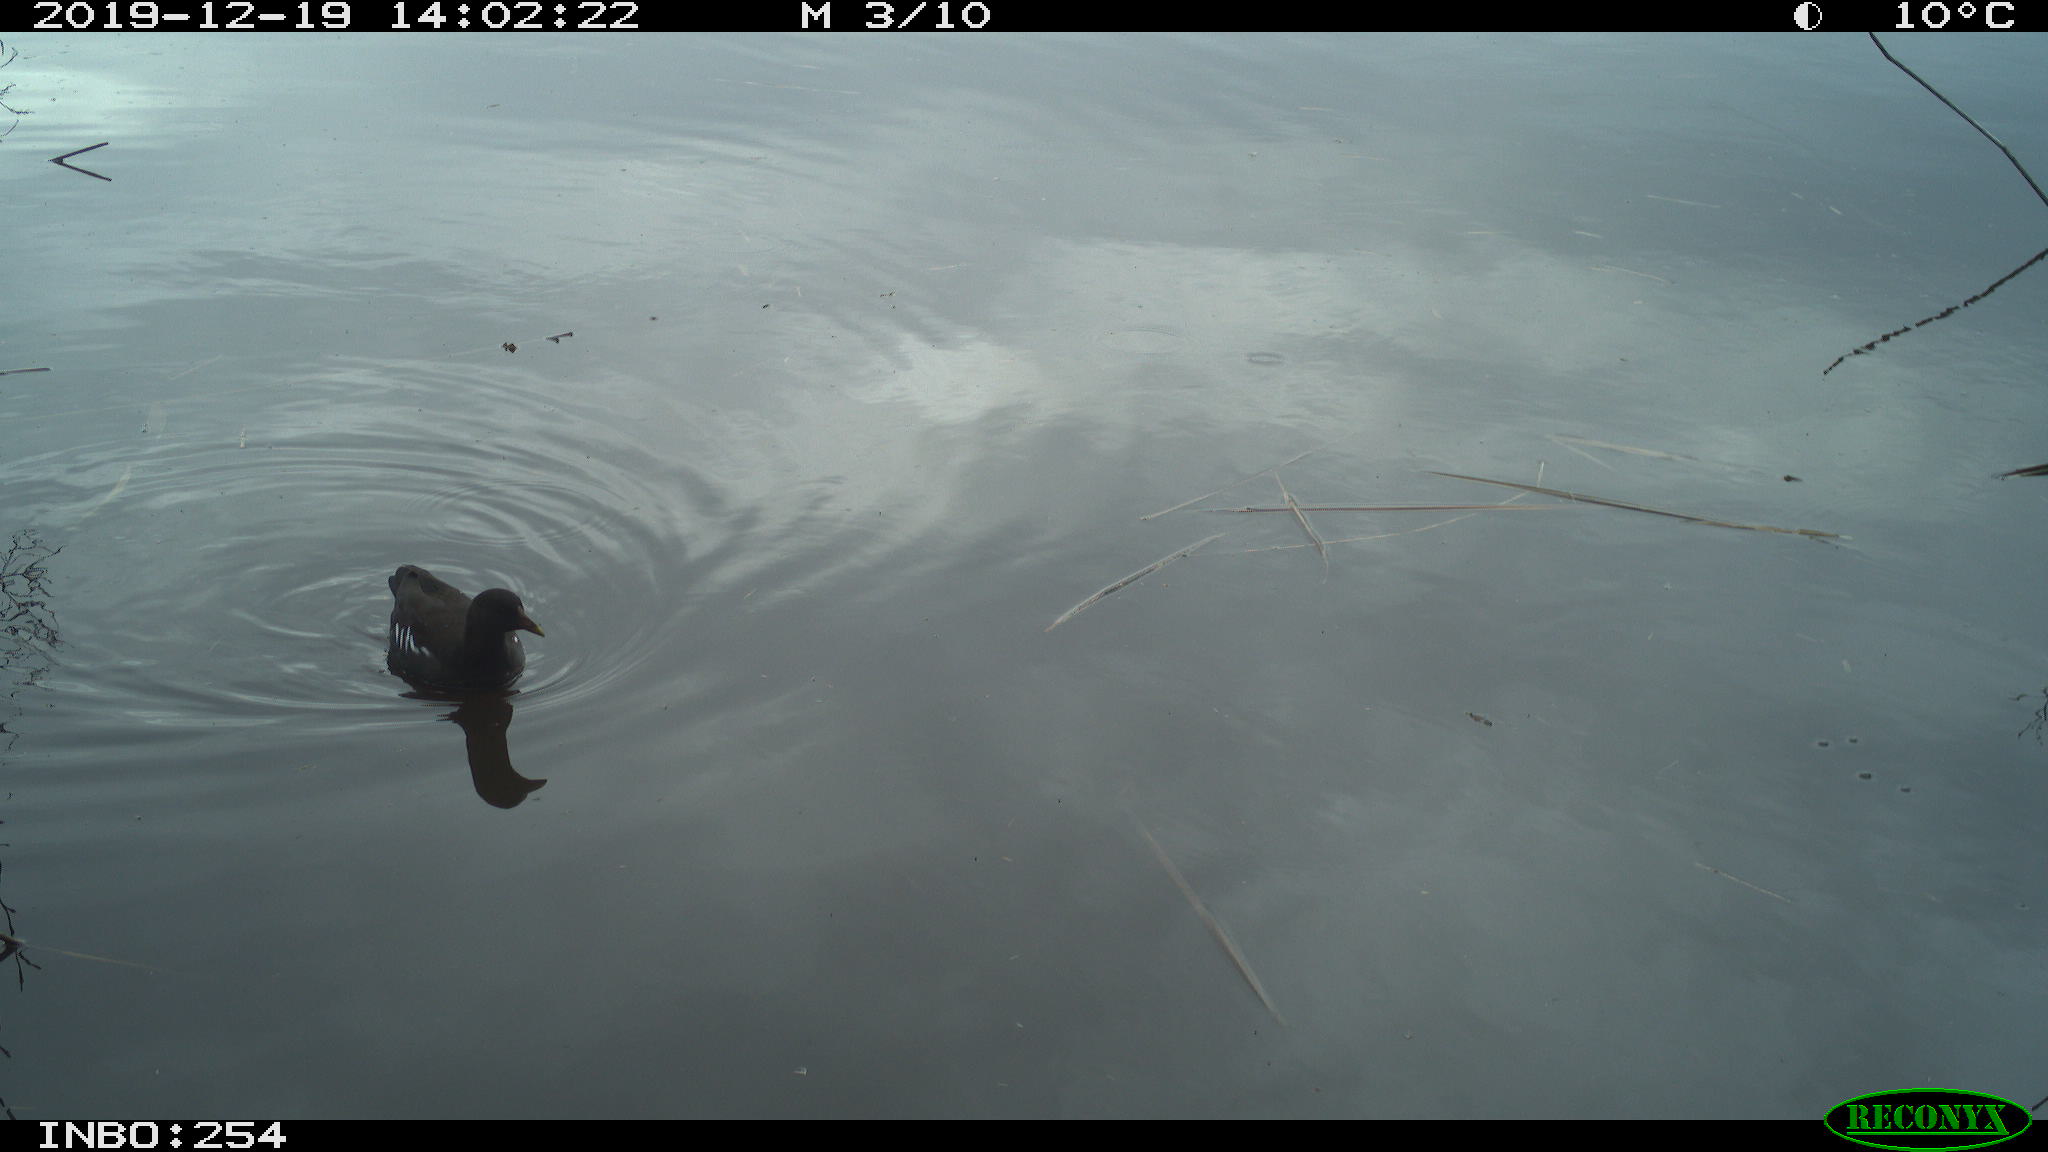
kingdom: Animalia
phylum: Chordata
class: Aves
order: Gruiformes
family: Rallidae
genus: Gallinula
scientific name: Gallinula chloropus
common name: Common moorhen
